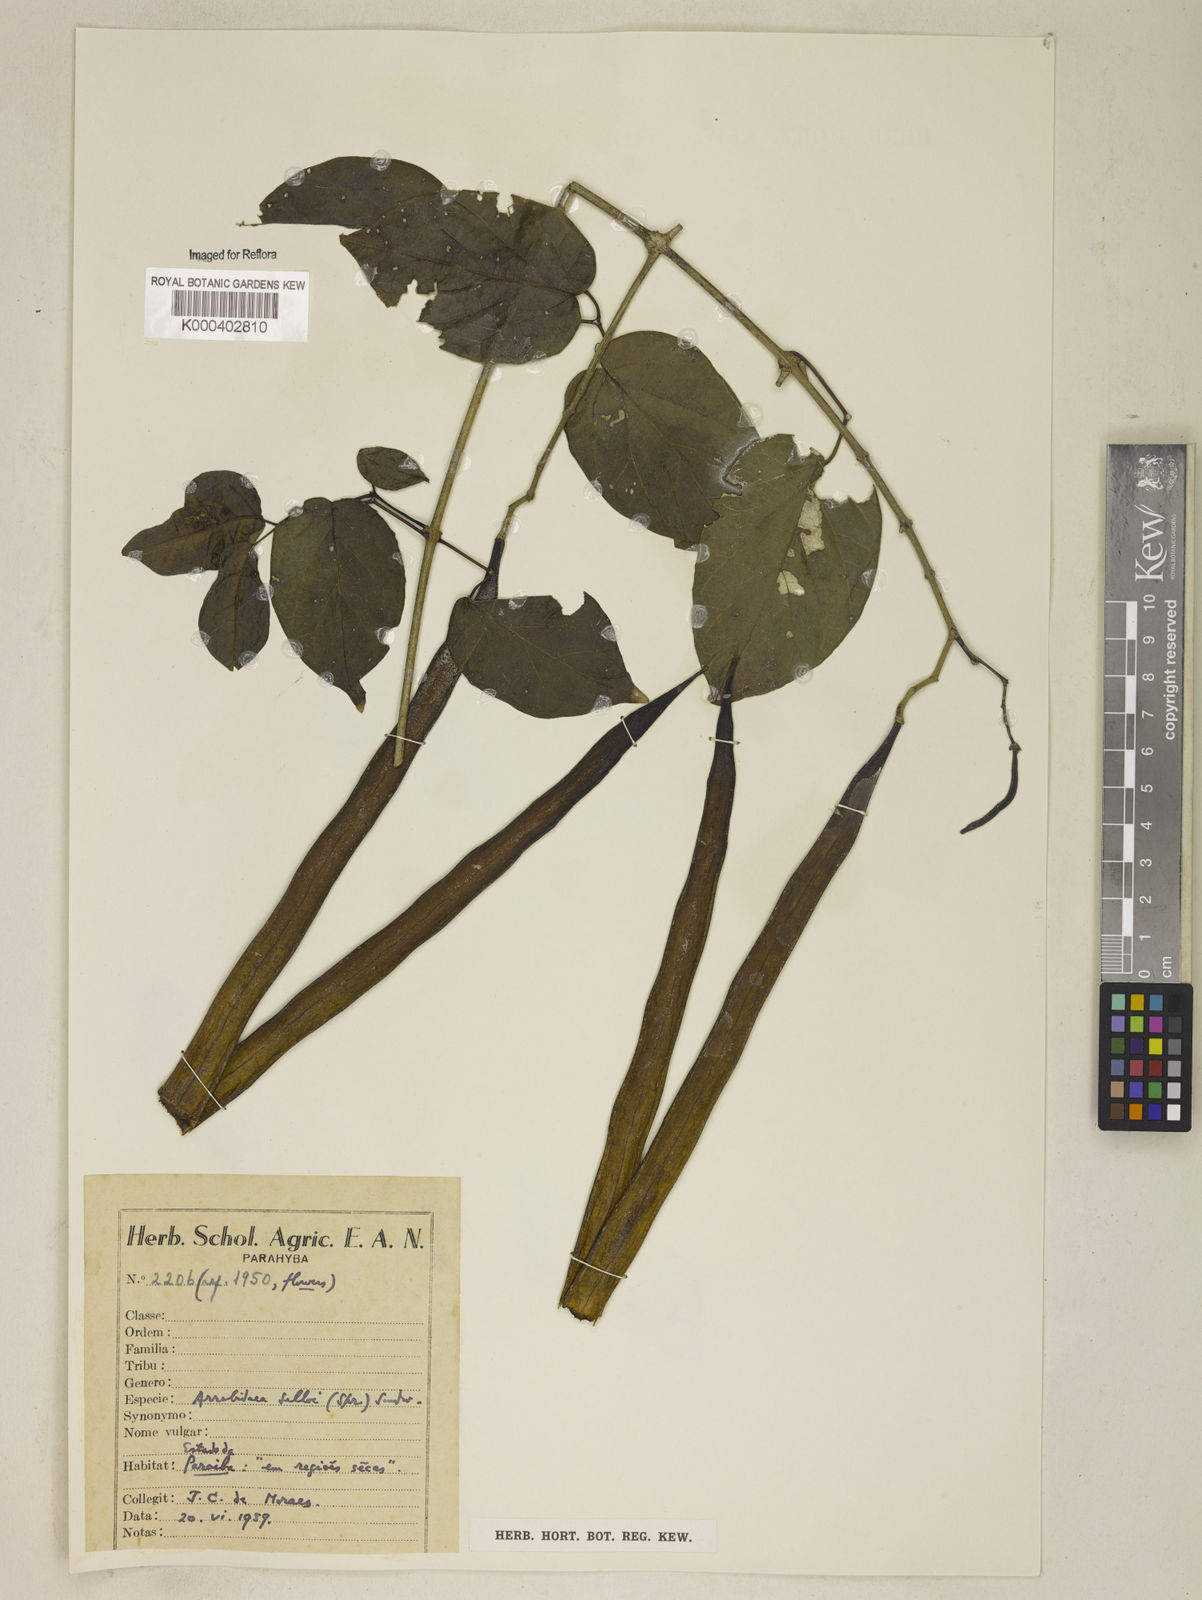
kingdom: Plantae
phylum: Tracheophyta
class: Magnoliopsida
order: Lamiales
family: Bignoniaceae
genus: Tanaecium
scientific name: Tanaecium selloi
